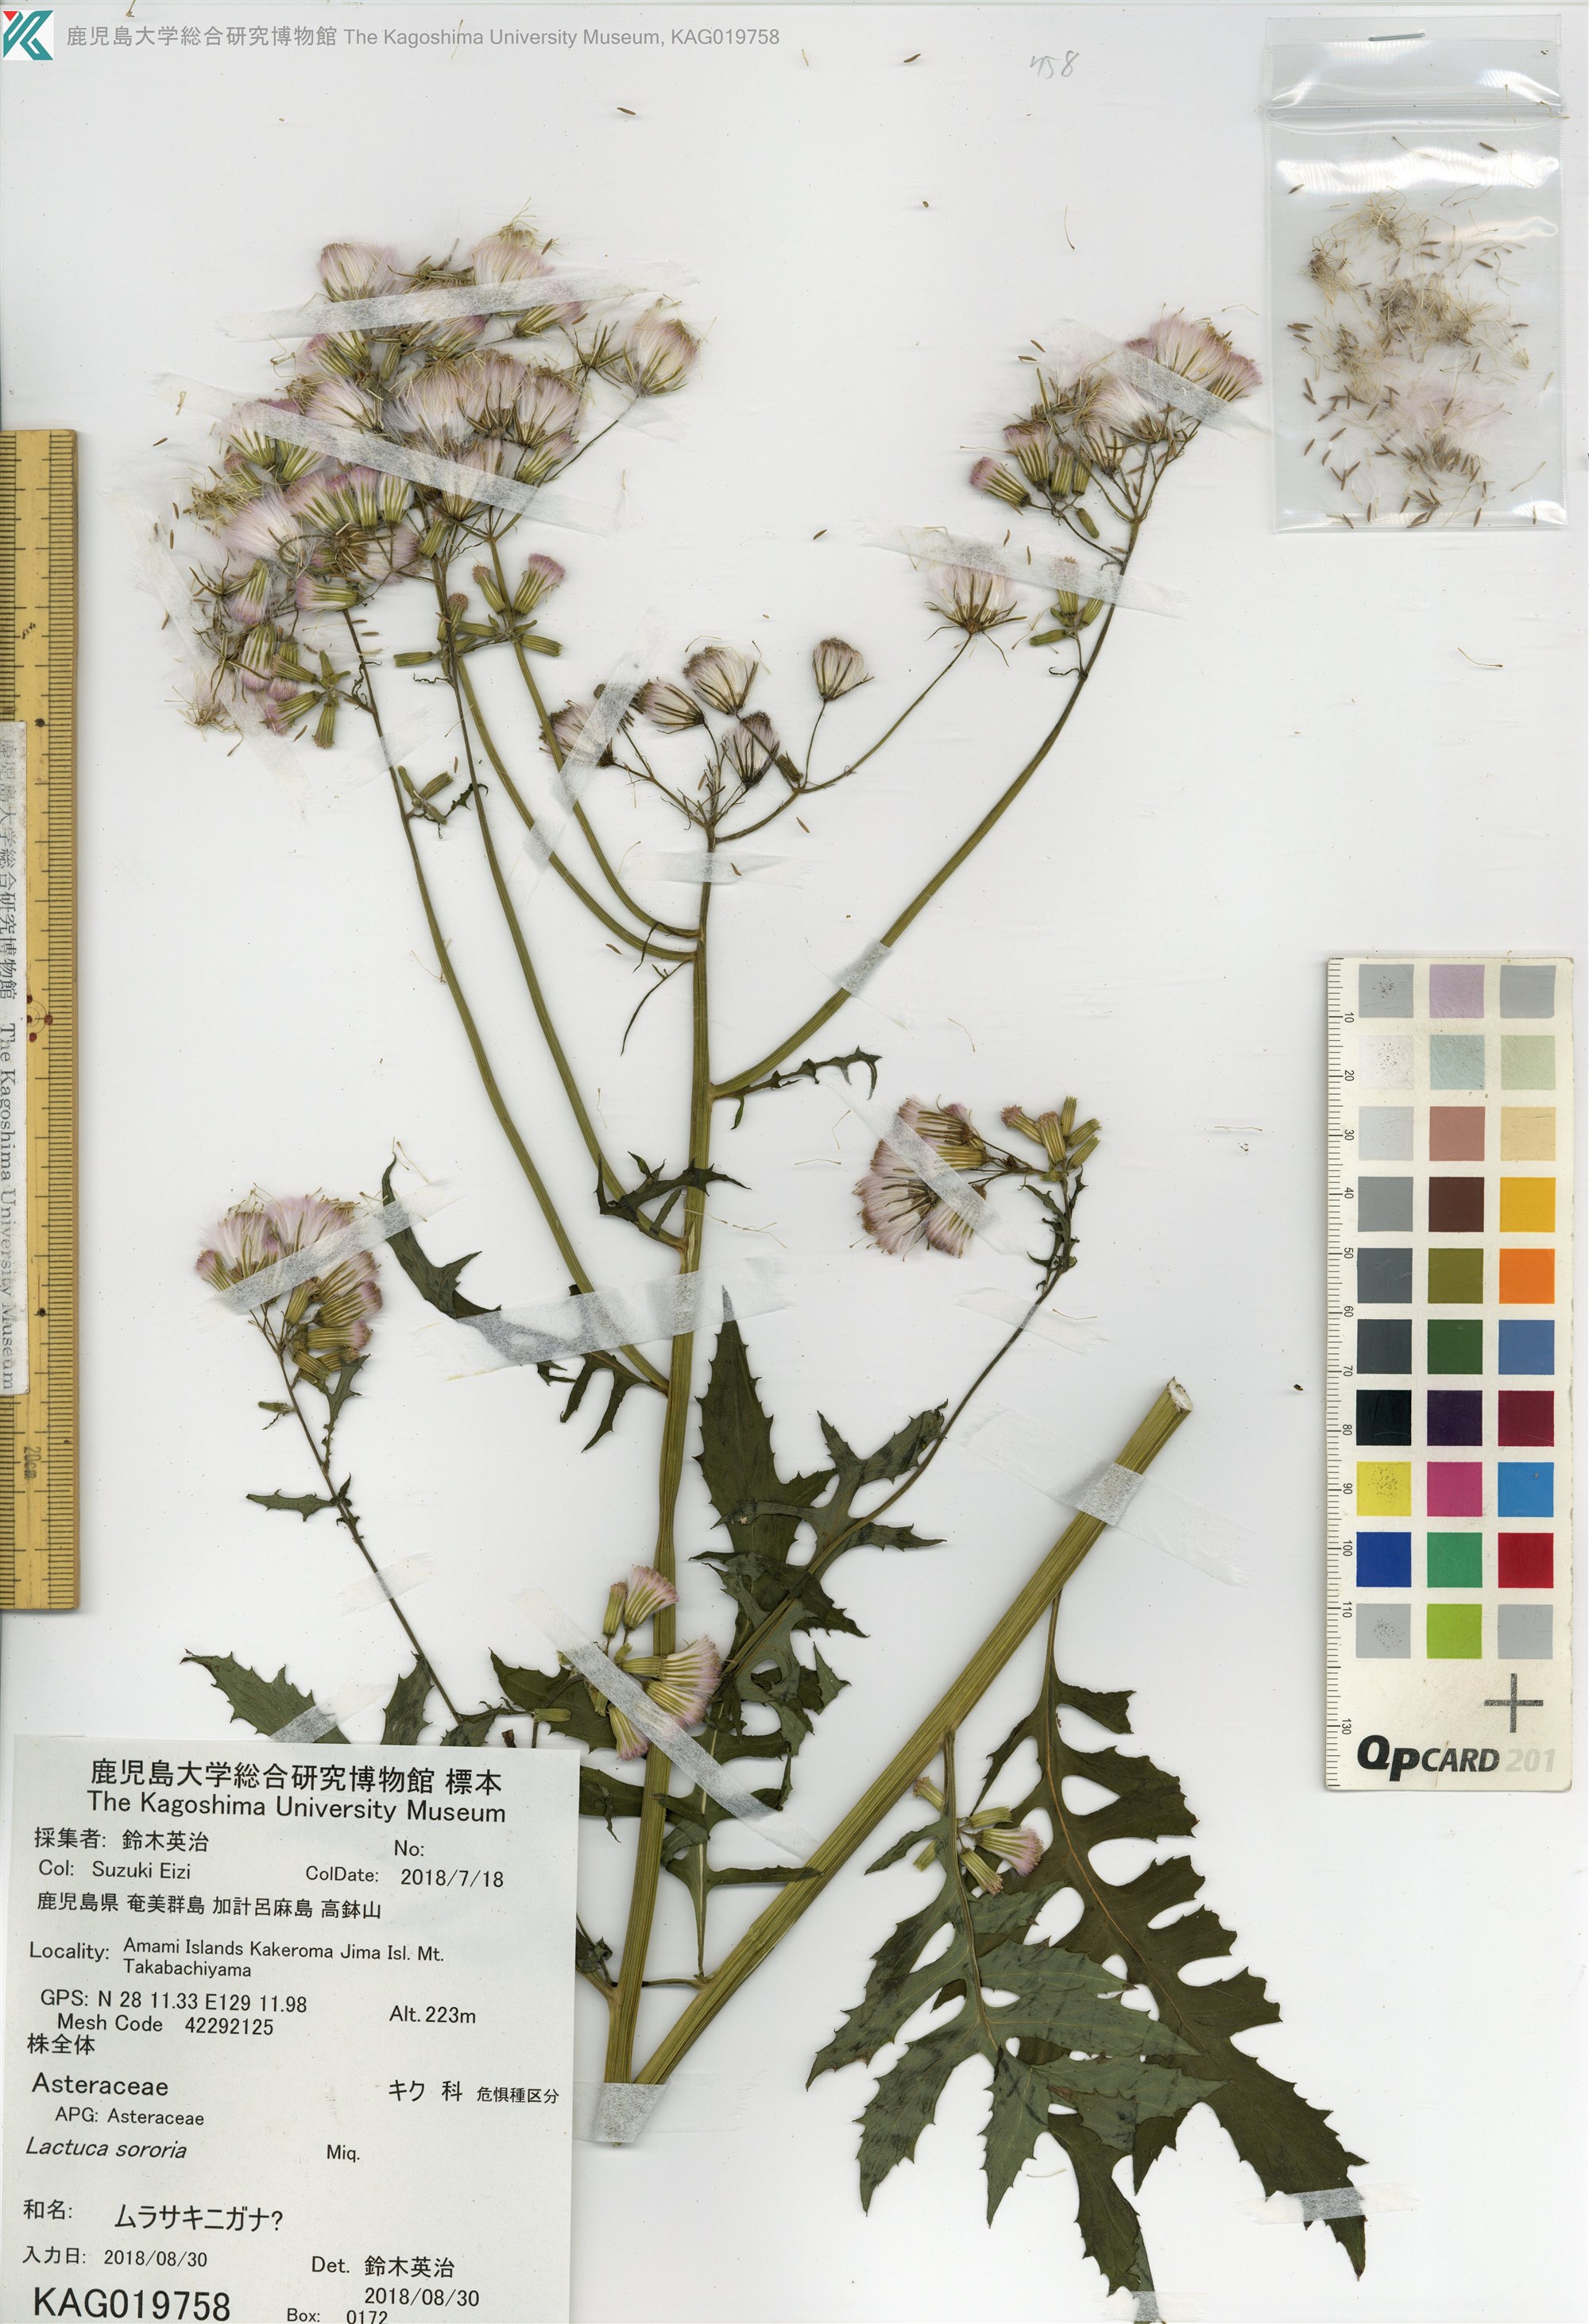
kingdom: Plantae
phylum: Tracheophyta
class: Magnoliopsida
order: Asterales
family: Asteraceae
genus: Erechtites
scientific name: Erechtites valerianifolius
